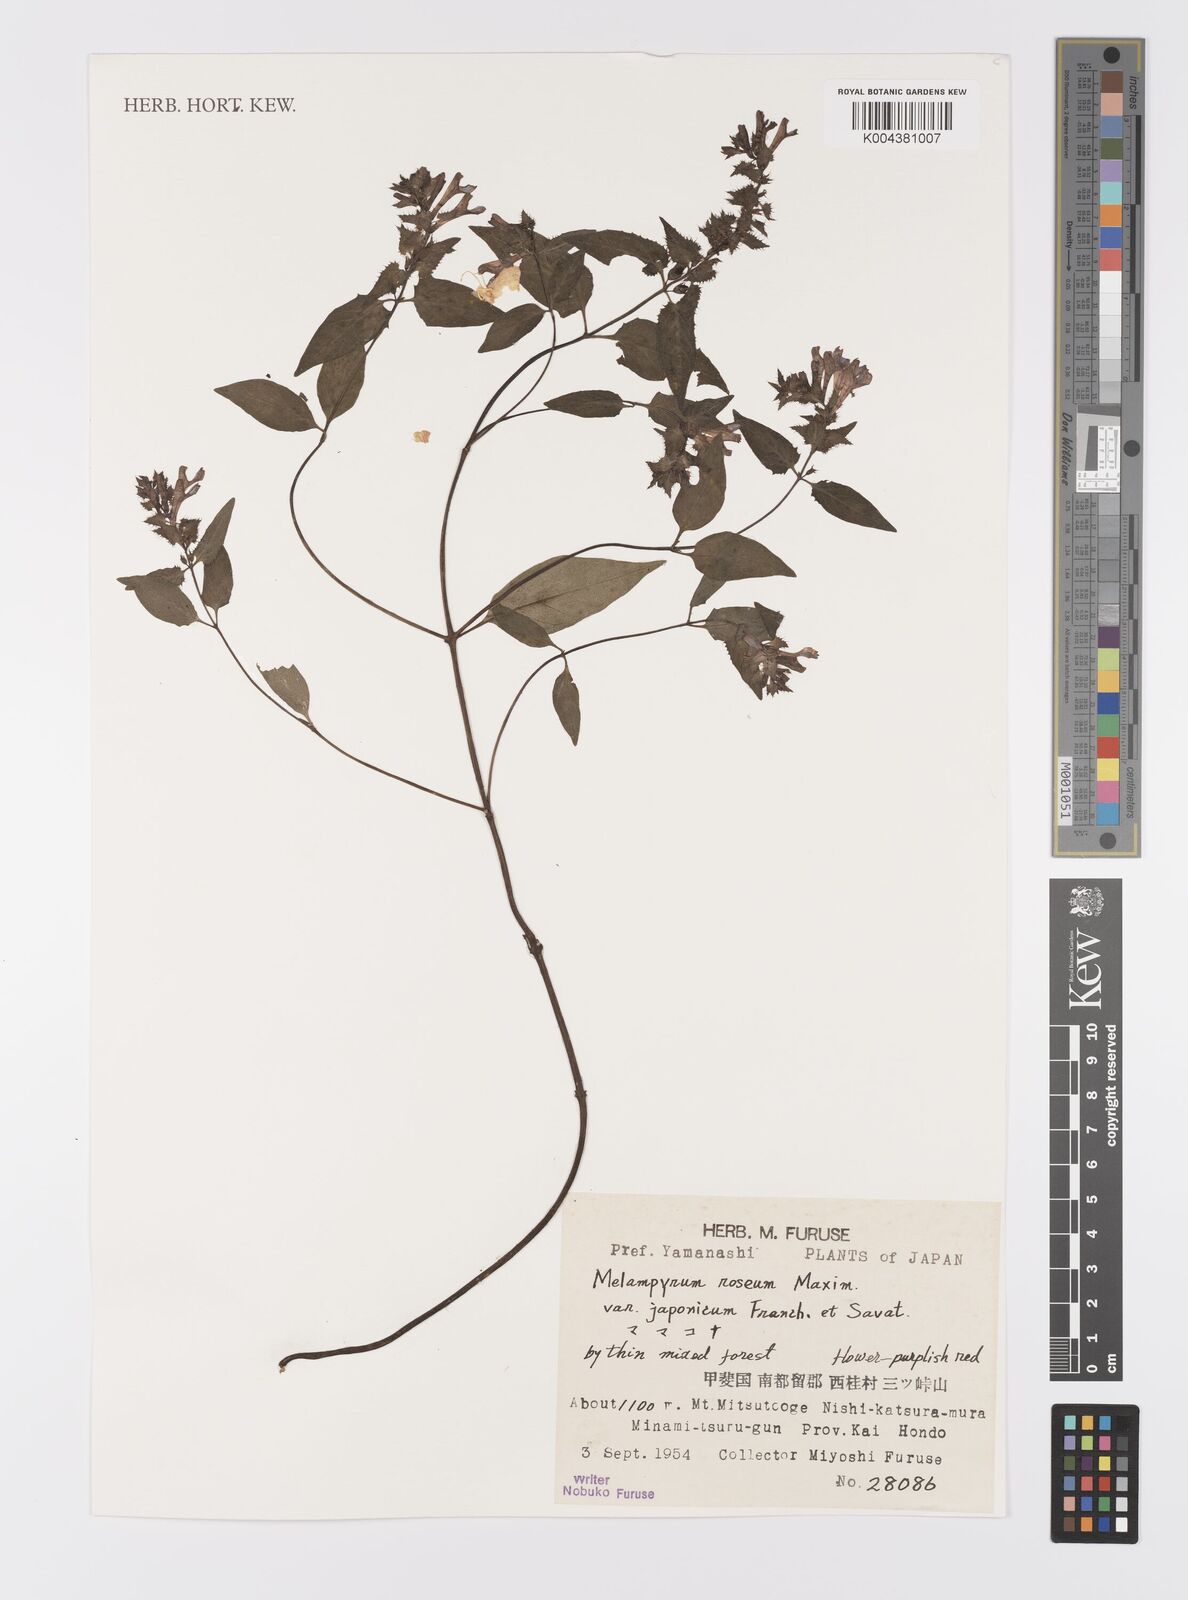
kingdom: Plantae
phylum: Tracheophyta
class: Magnoliopsida
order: Lamiales
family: Orobanchaceae
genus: Melampyrum
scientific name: Melampyrum roseum
